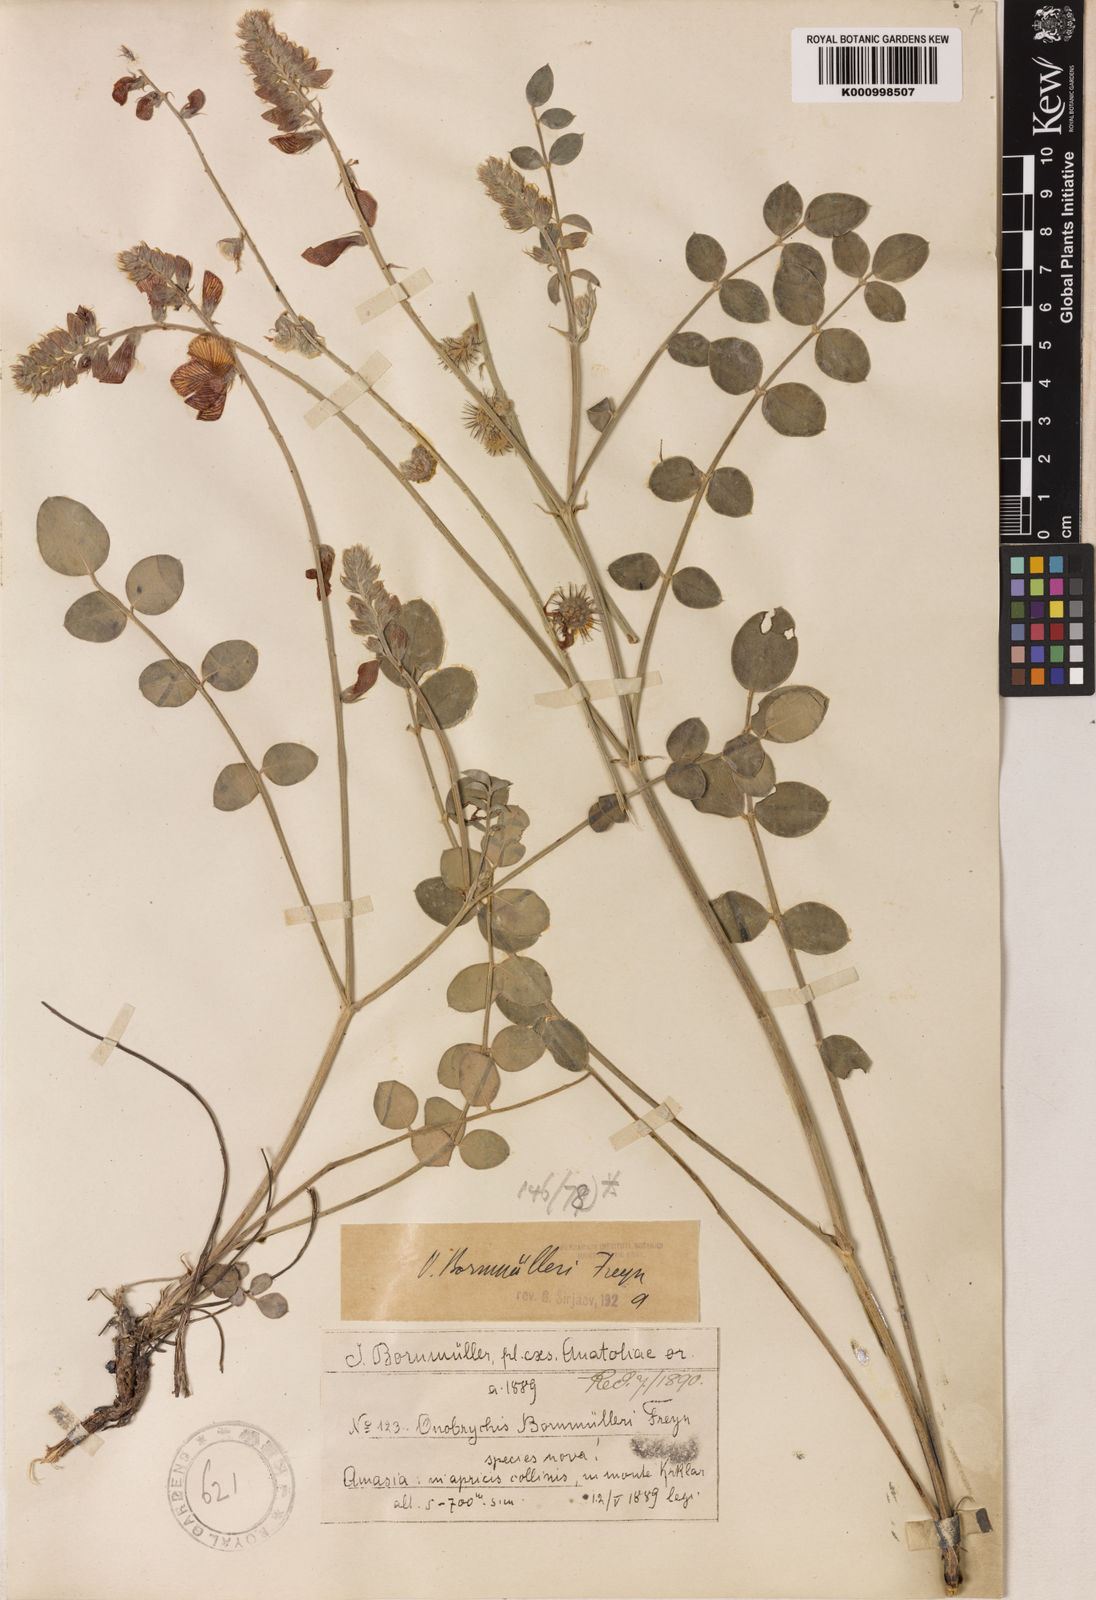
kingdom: Plantae
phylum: Tracheophyta
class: Magnoliopsida
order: Fabales
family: Fabaceae
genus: Onobrychis
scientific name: Onobrychis bornmuelleri
